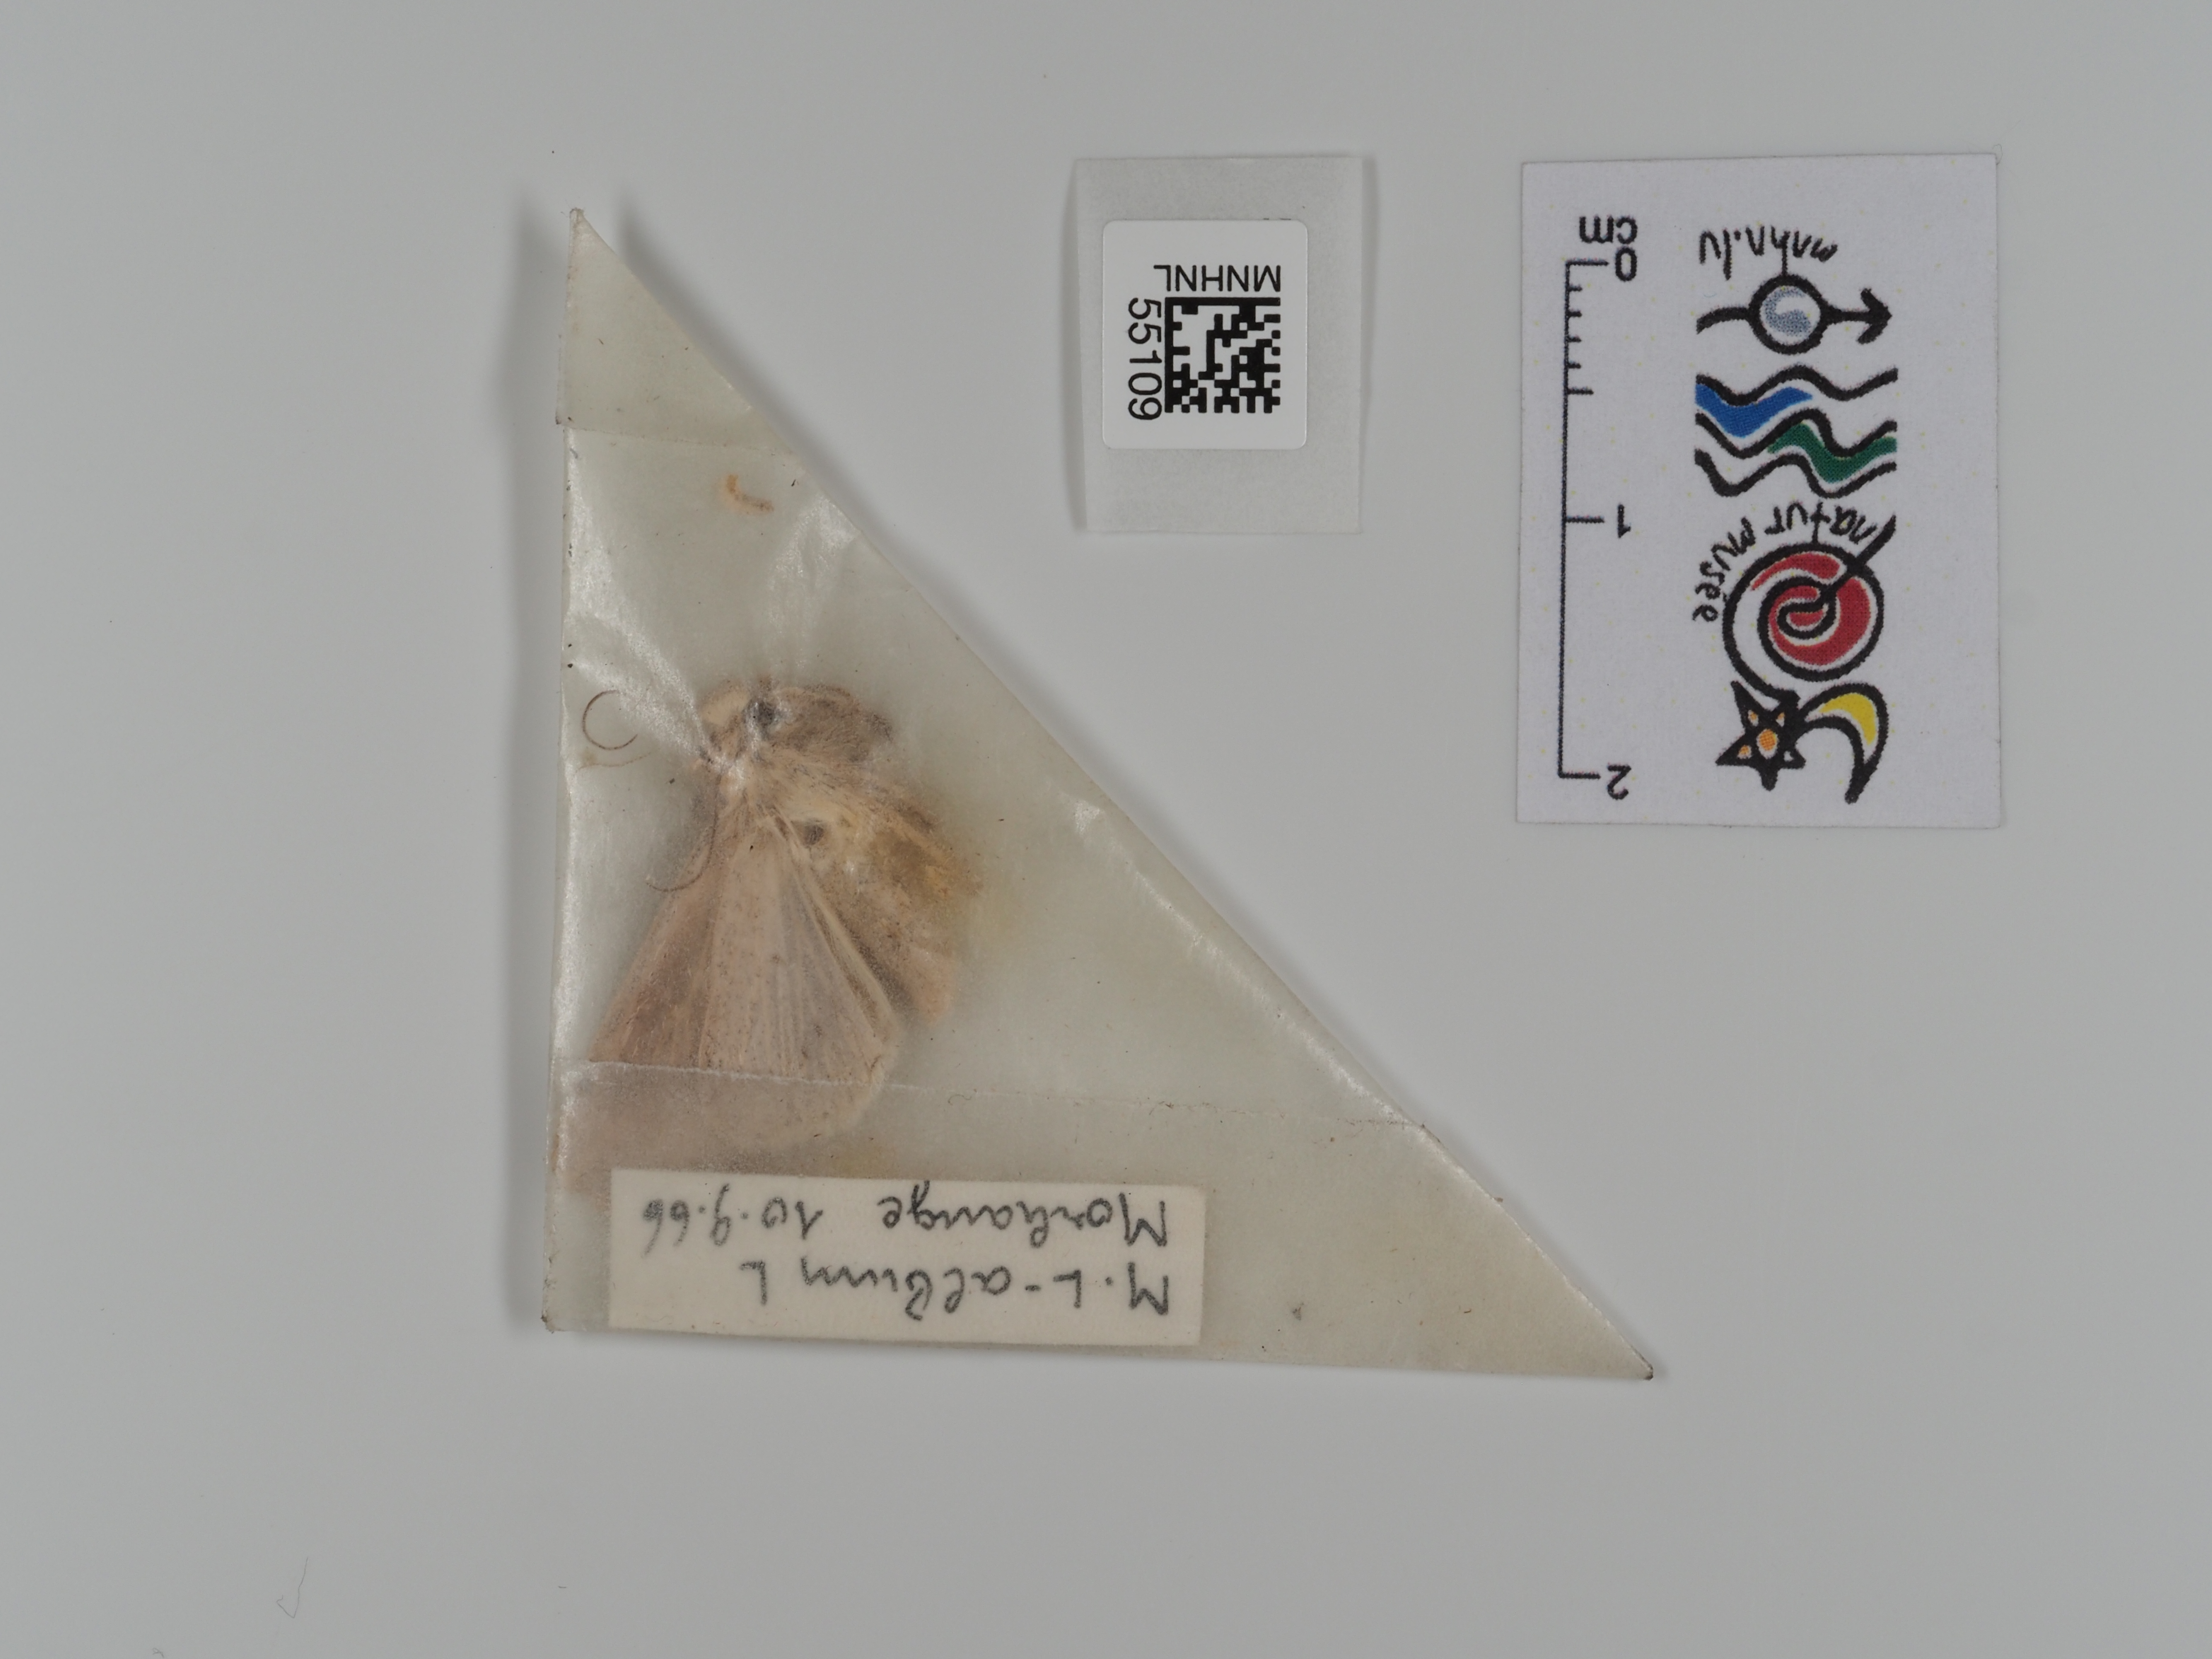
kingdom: Animalia
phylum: Arthropoda
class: Insecta
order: Lepidoptera
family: Noctuidae
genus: Mythimna
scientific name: Mythimna l-album
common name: L-album wainscot
